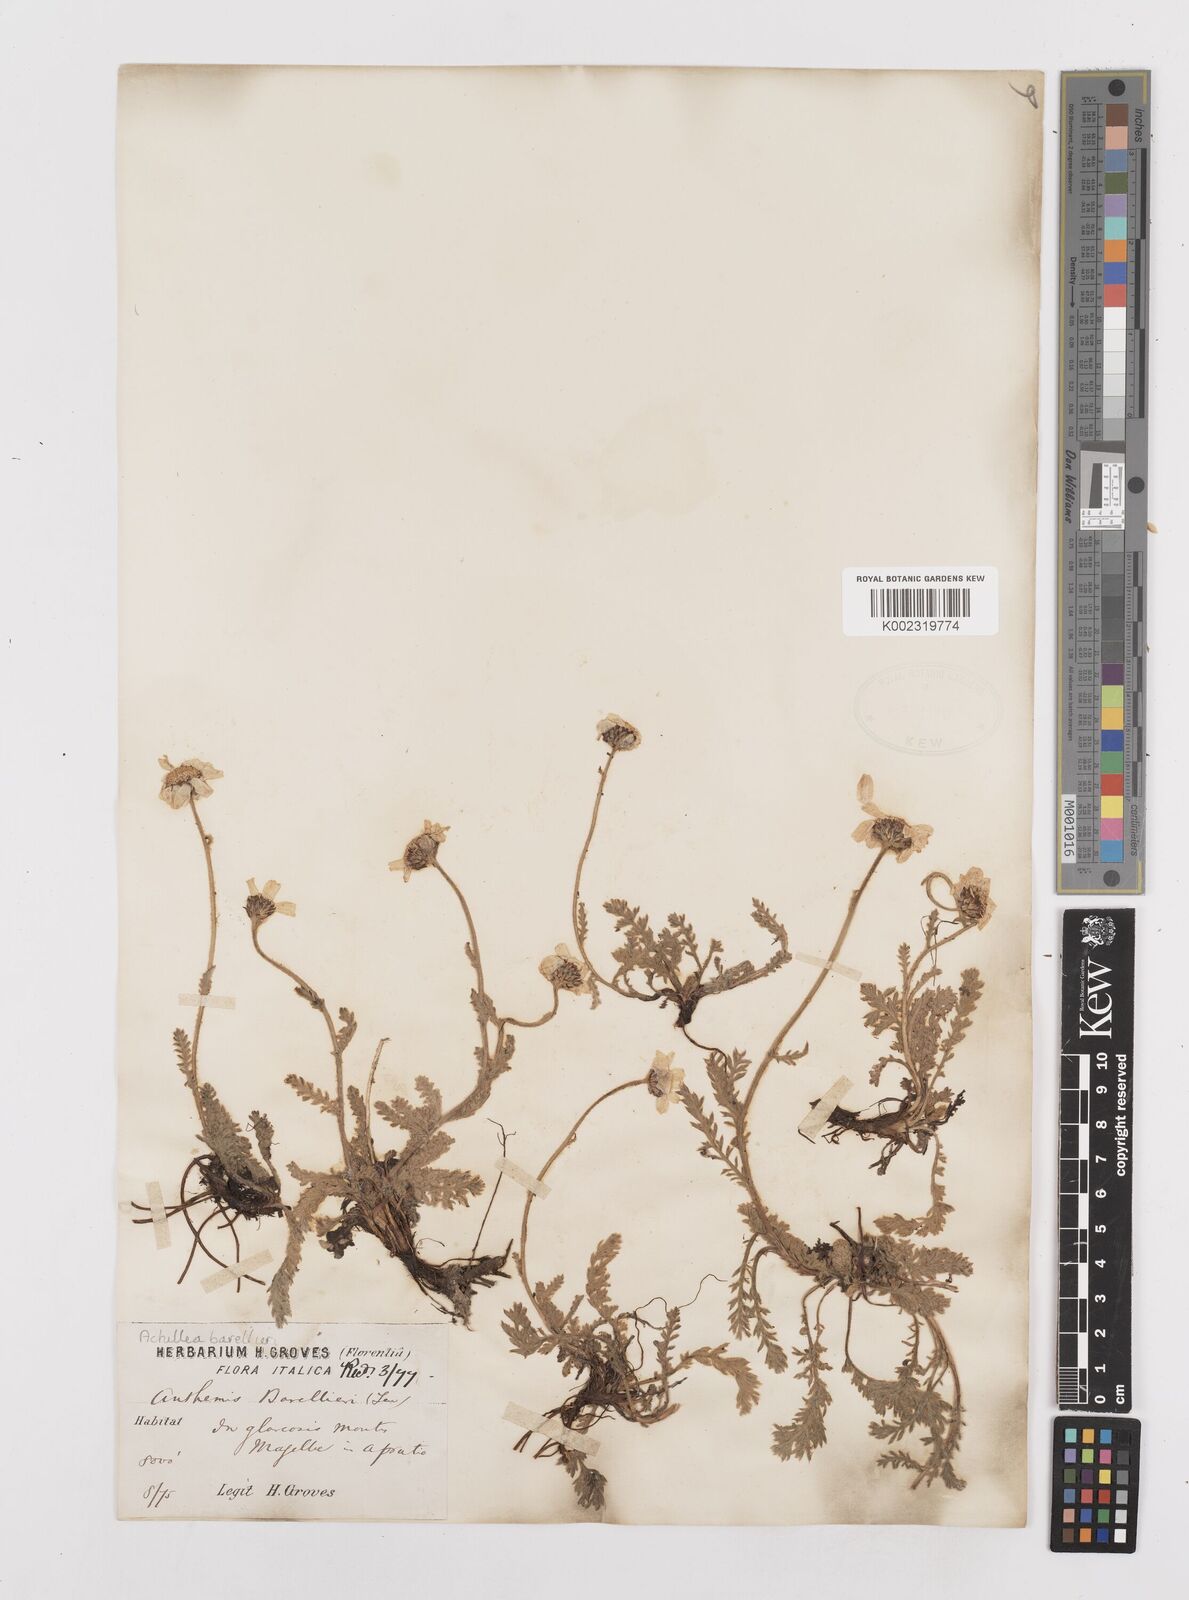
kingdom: Plantae
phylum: Tracheophyta
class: Magnoliopsida
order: Asterales
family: Asteraceae
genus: Achillea
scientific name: Achillea barrelieri
